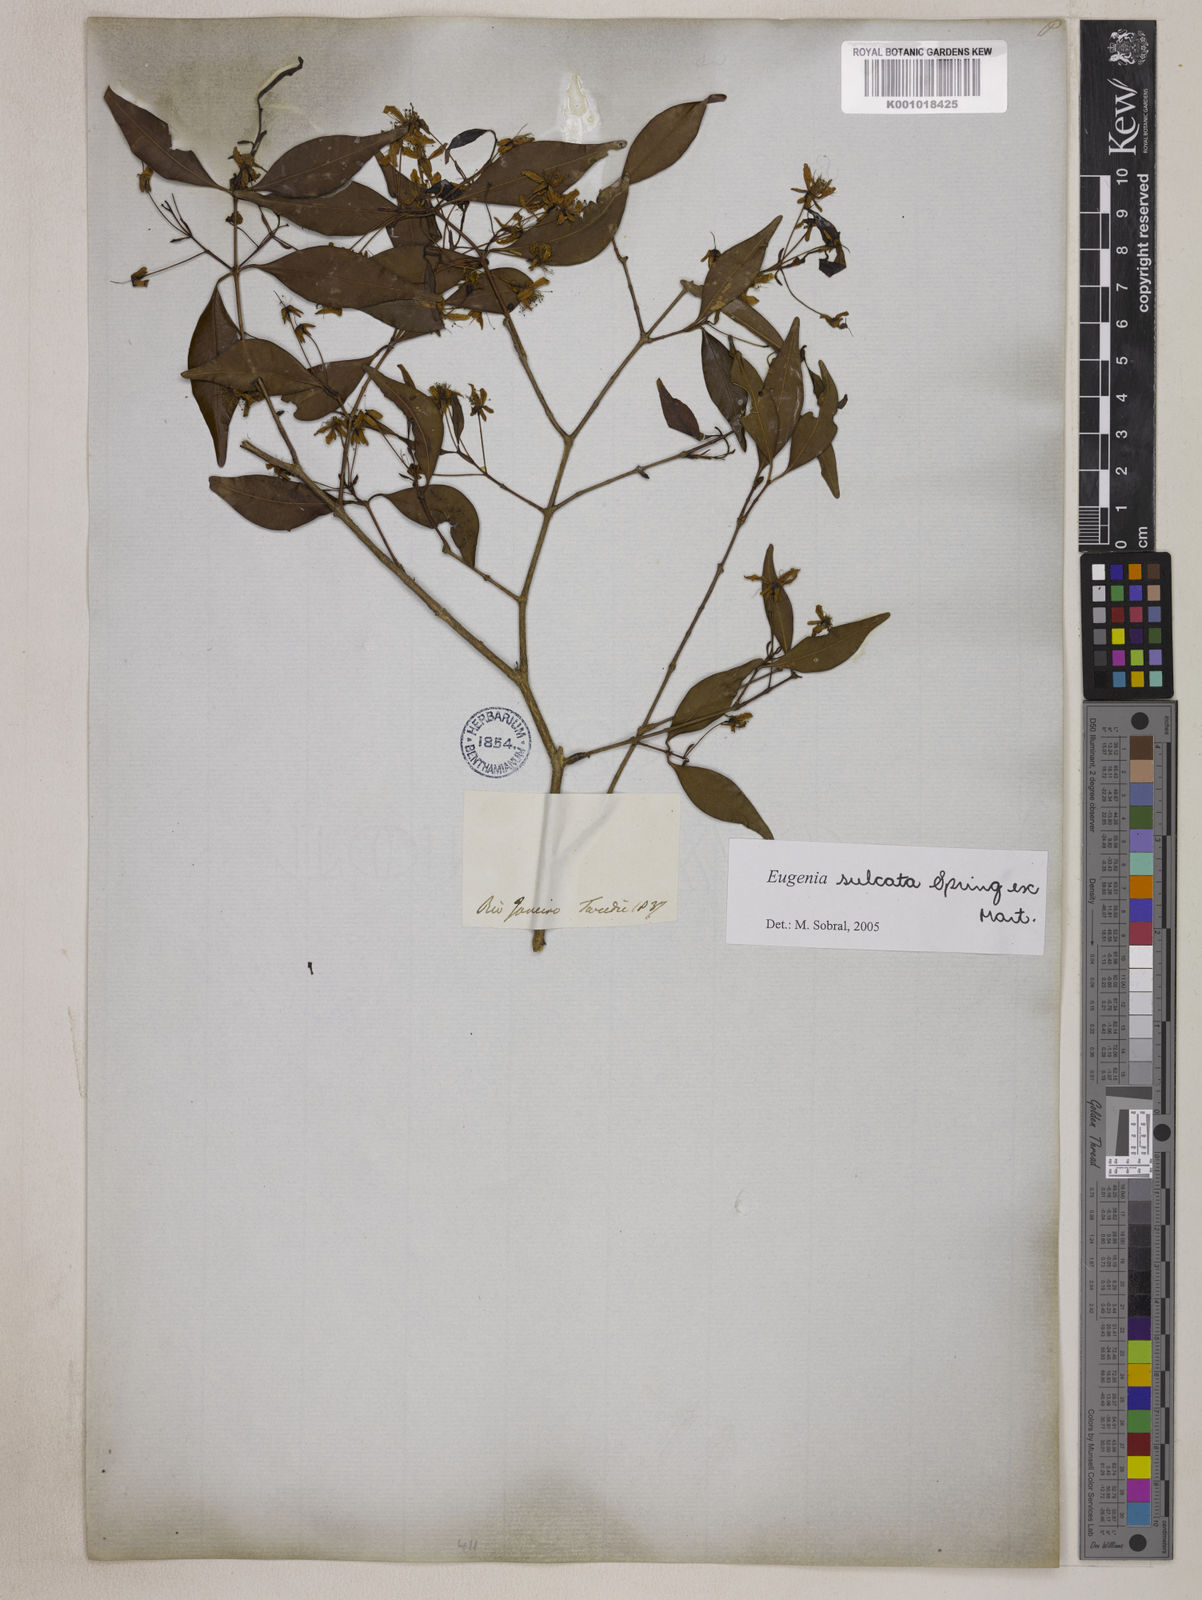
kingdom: Plantae
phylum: Tracheophyta
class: Magnoliopsida
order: Myrtales
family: Myrtaceae
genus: Eugenia
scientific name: Eugenia sulcata
